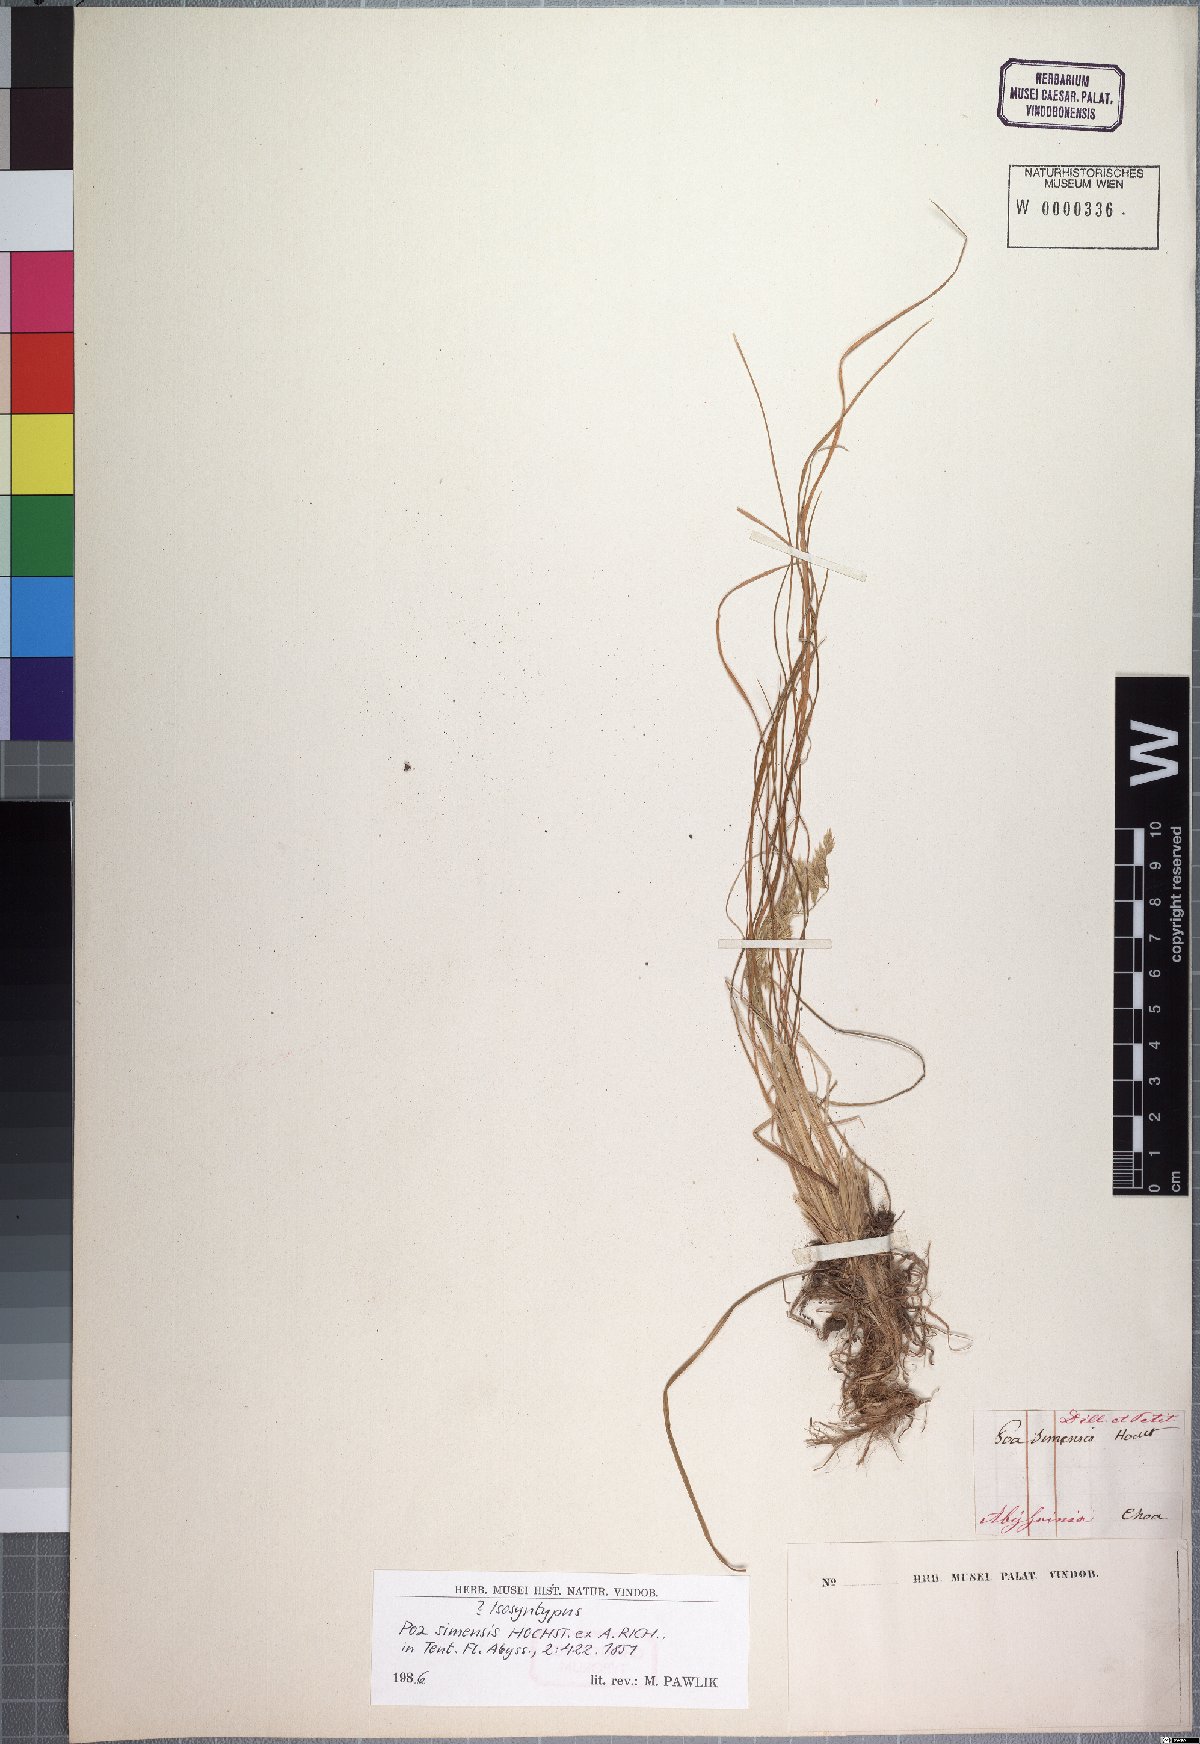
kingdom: Plantae
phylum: Tracheophyta
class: Liliopsida
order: Poales
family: Poaceae
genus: Poa
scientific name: Poa simensis
